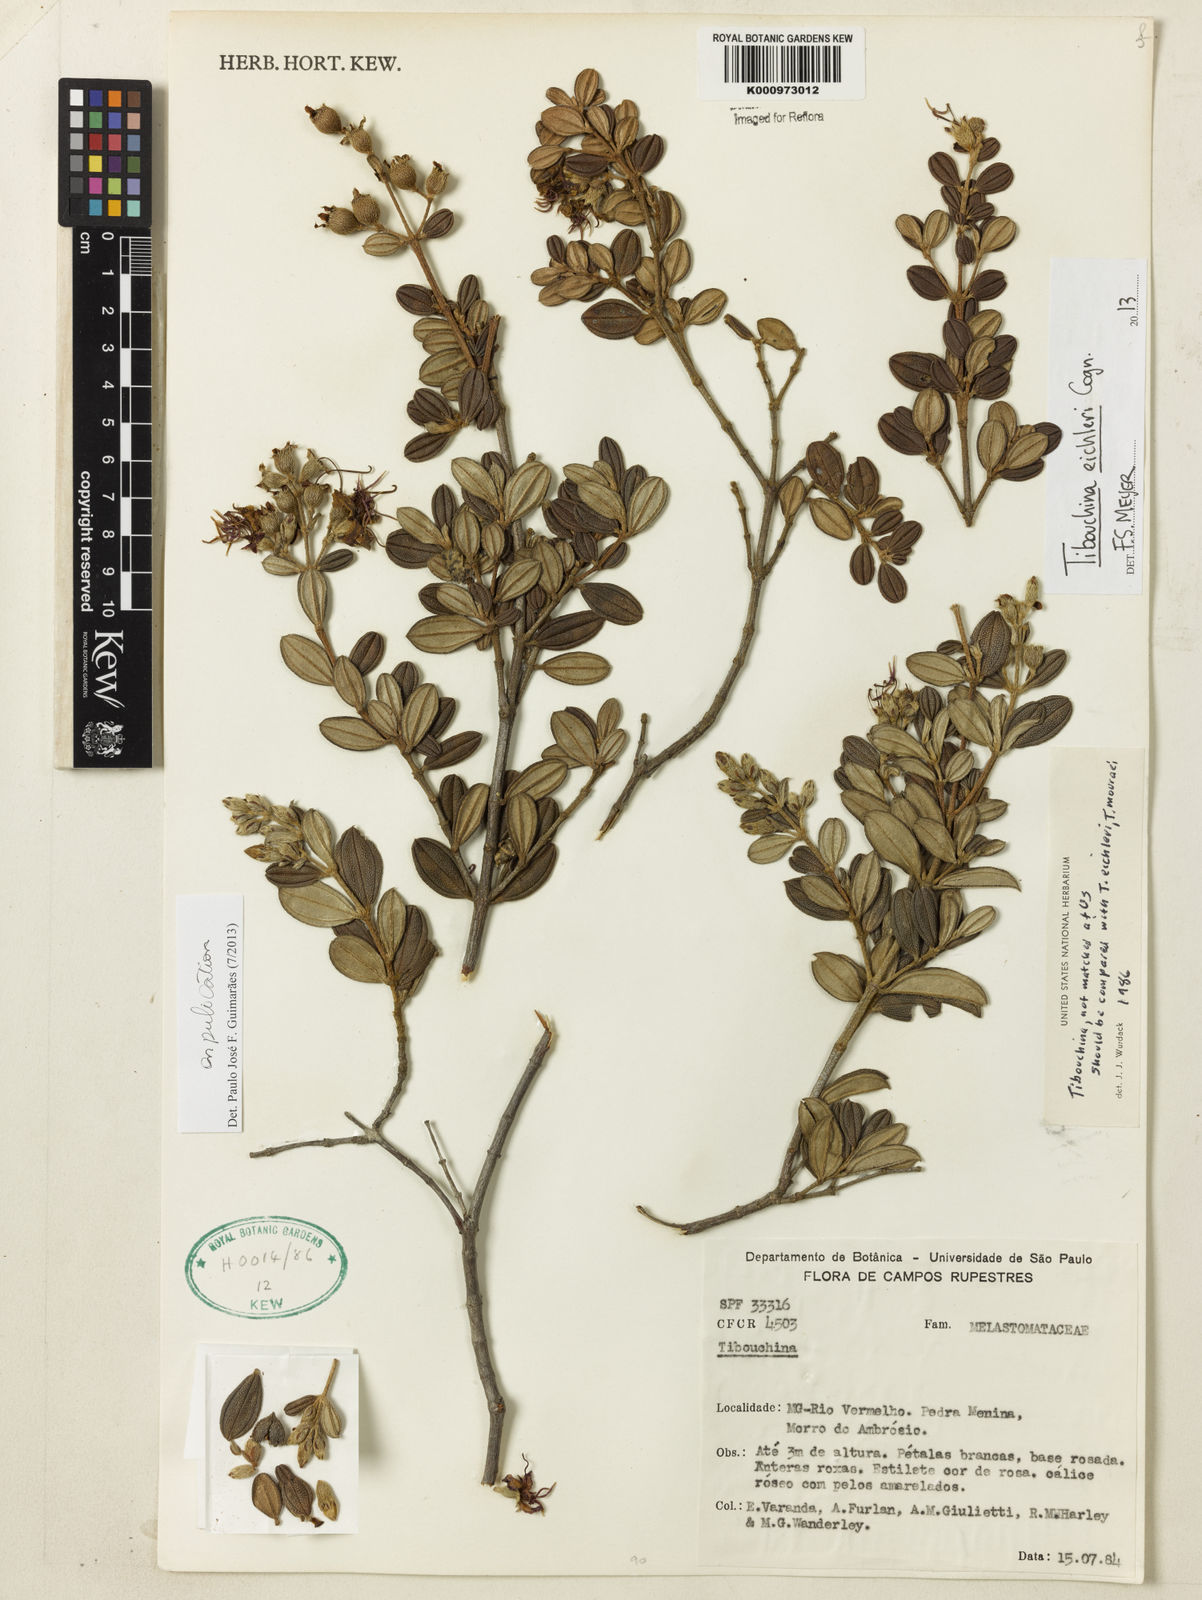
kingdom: Plantae
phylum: Tracheophyta
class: Magnoliopsida
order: Myrtales
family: Melastomataceae
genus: Tibouchina
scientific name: Tibouchina
